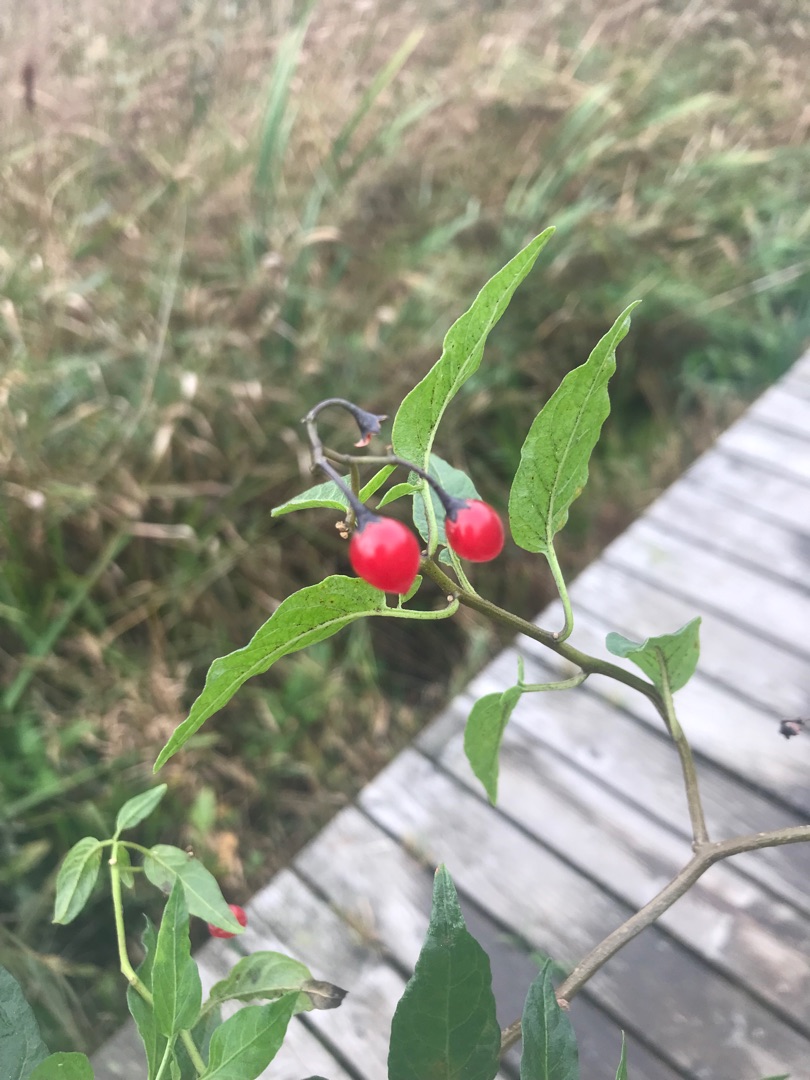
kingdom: Plantae
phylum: Tracheophyta
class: Magnoliopsida
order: Solanales
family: Solanaceae
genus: Solanum
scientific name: Solanum dulcamara
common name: Bittersød natskygge
